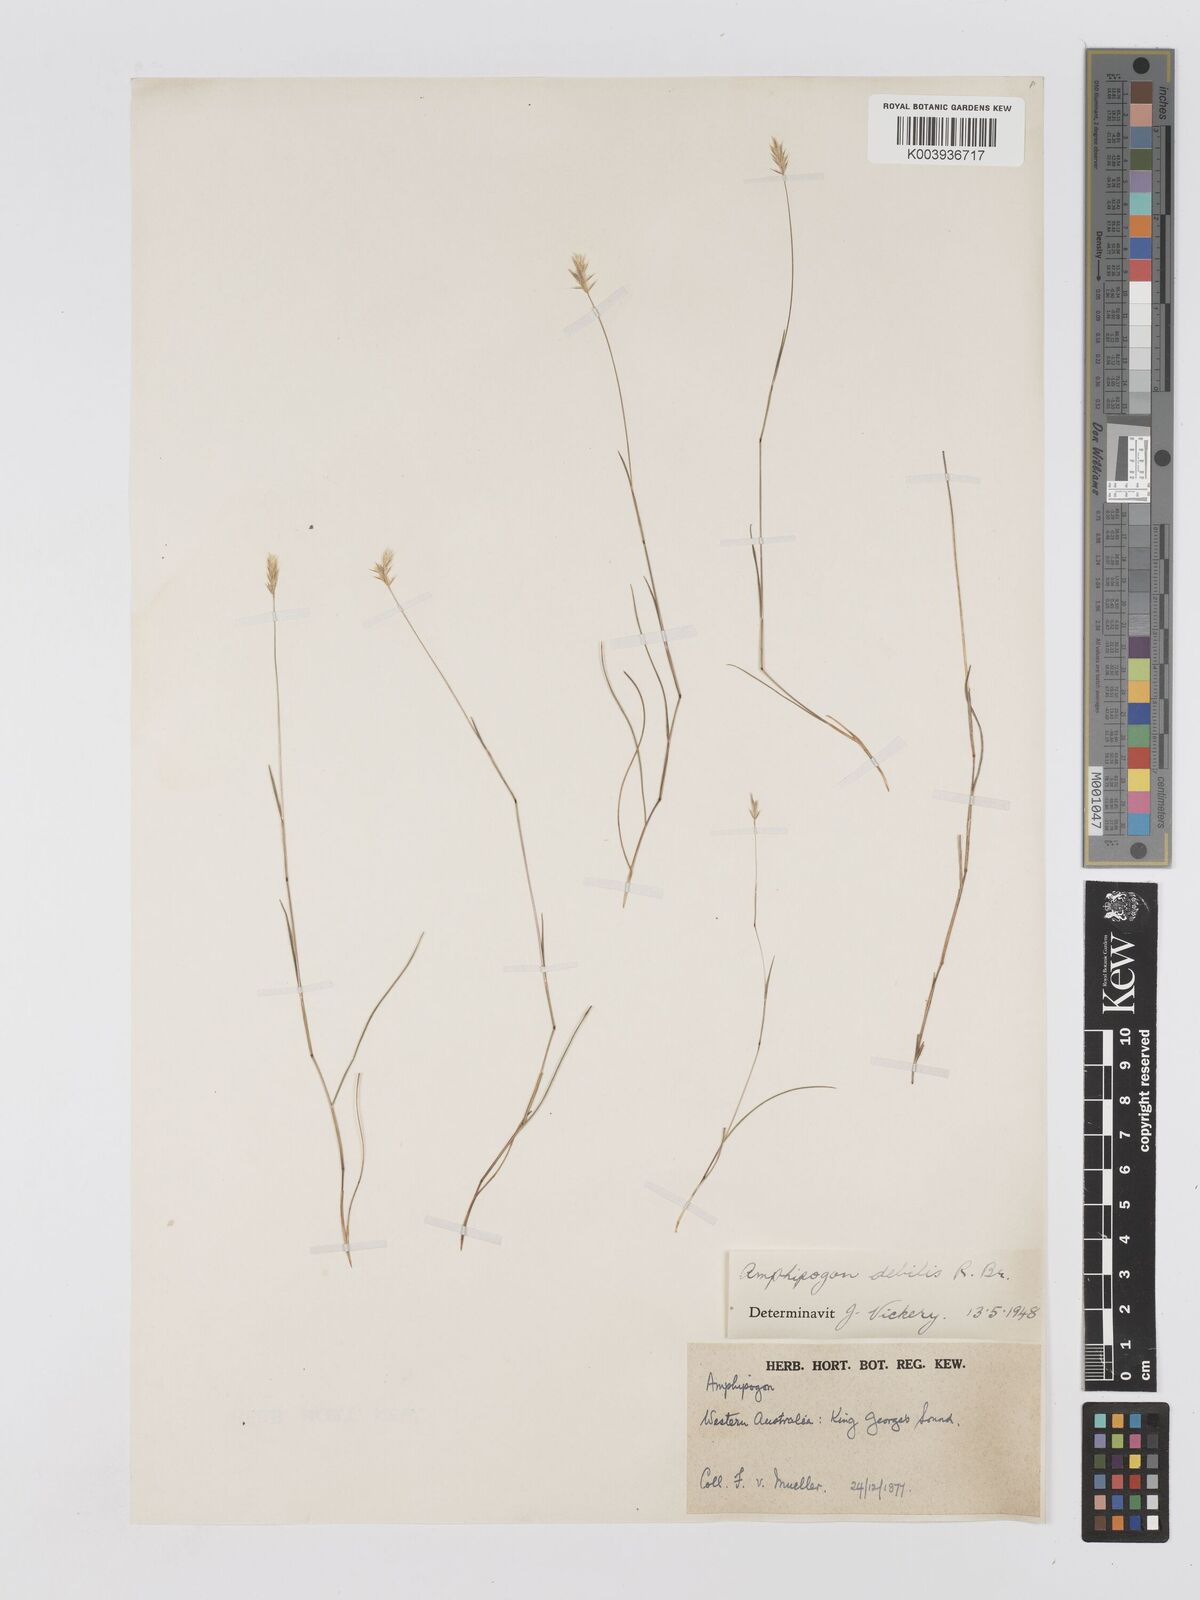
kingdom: Plantae
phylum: Tracheophyta
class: Liliopsida
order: Poales
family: Poaceae
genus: Amphipogon
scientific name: Amphipogon debilis
